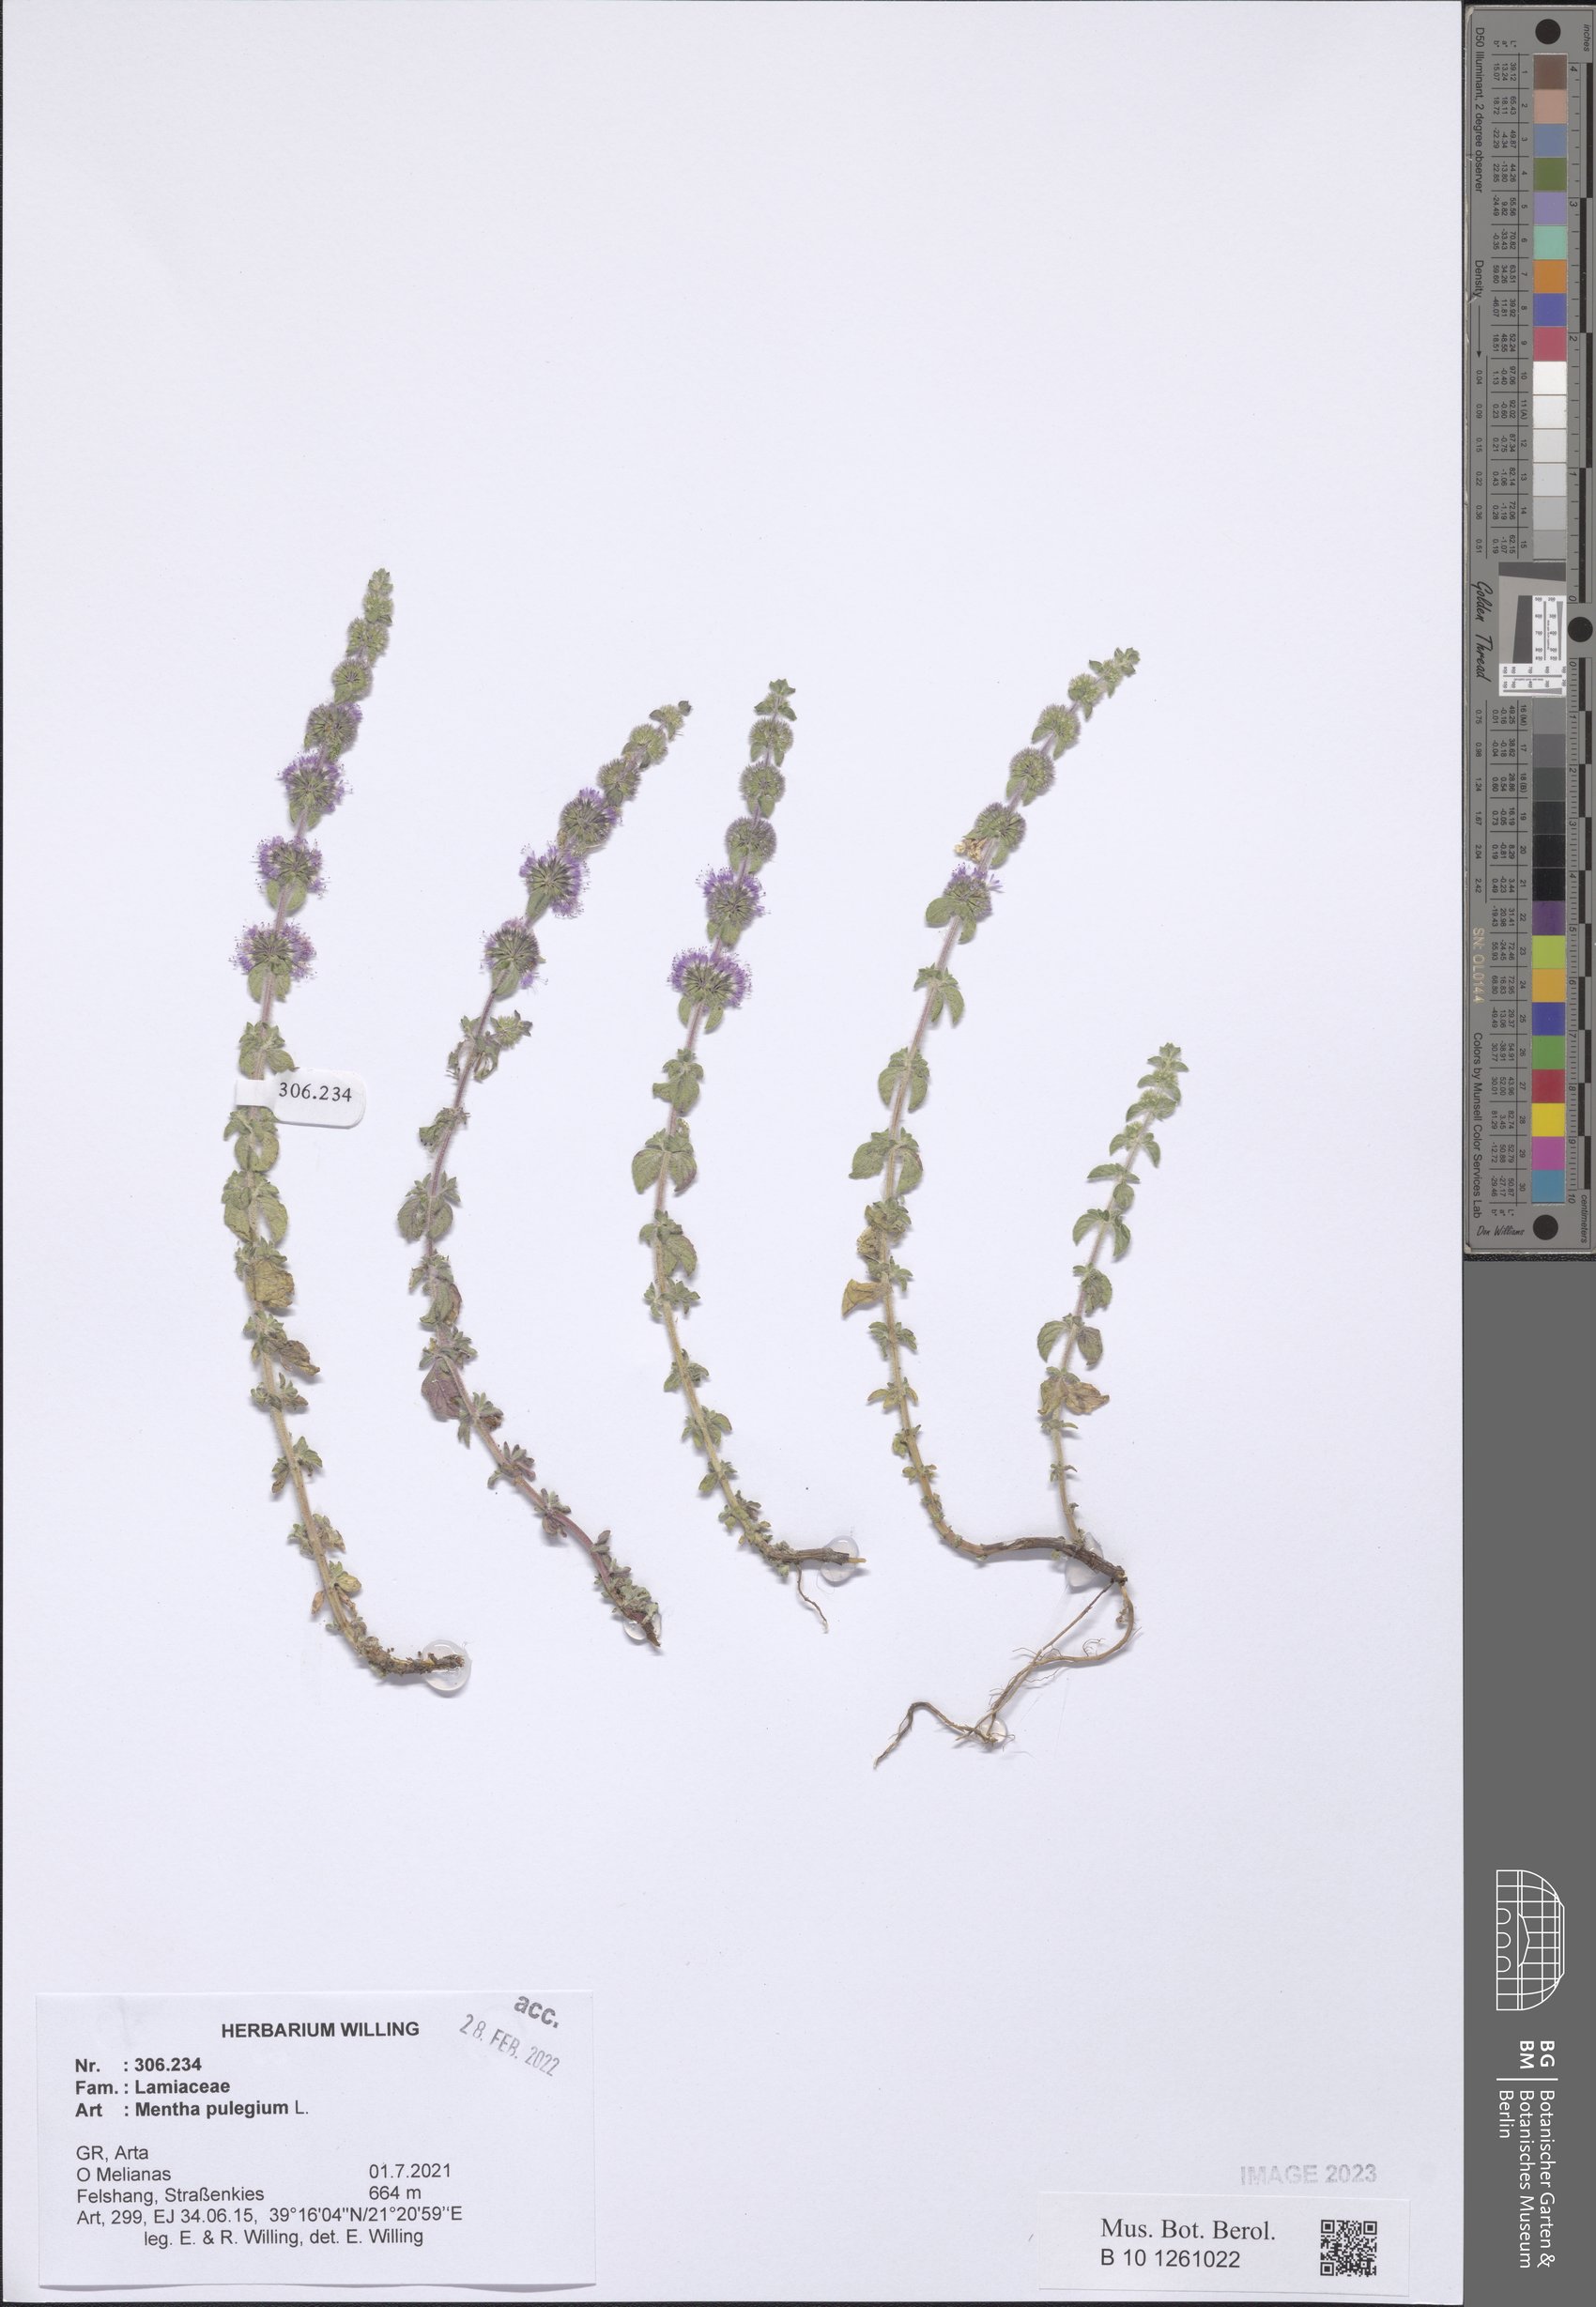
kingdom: Plantae
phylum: Tracheophyta
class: Magnoliopsida
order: Lamiales
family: Lamiaceae
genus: Mentha
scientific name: Mentha pulegium
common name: Pennyroyal
